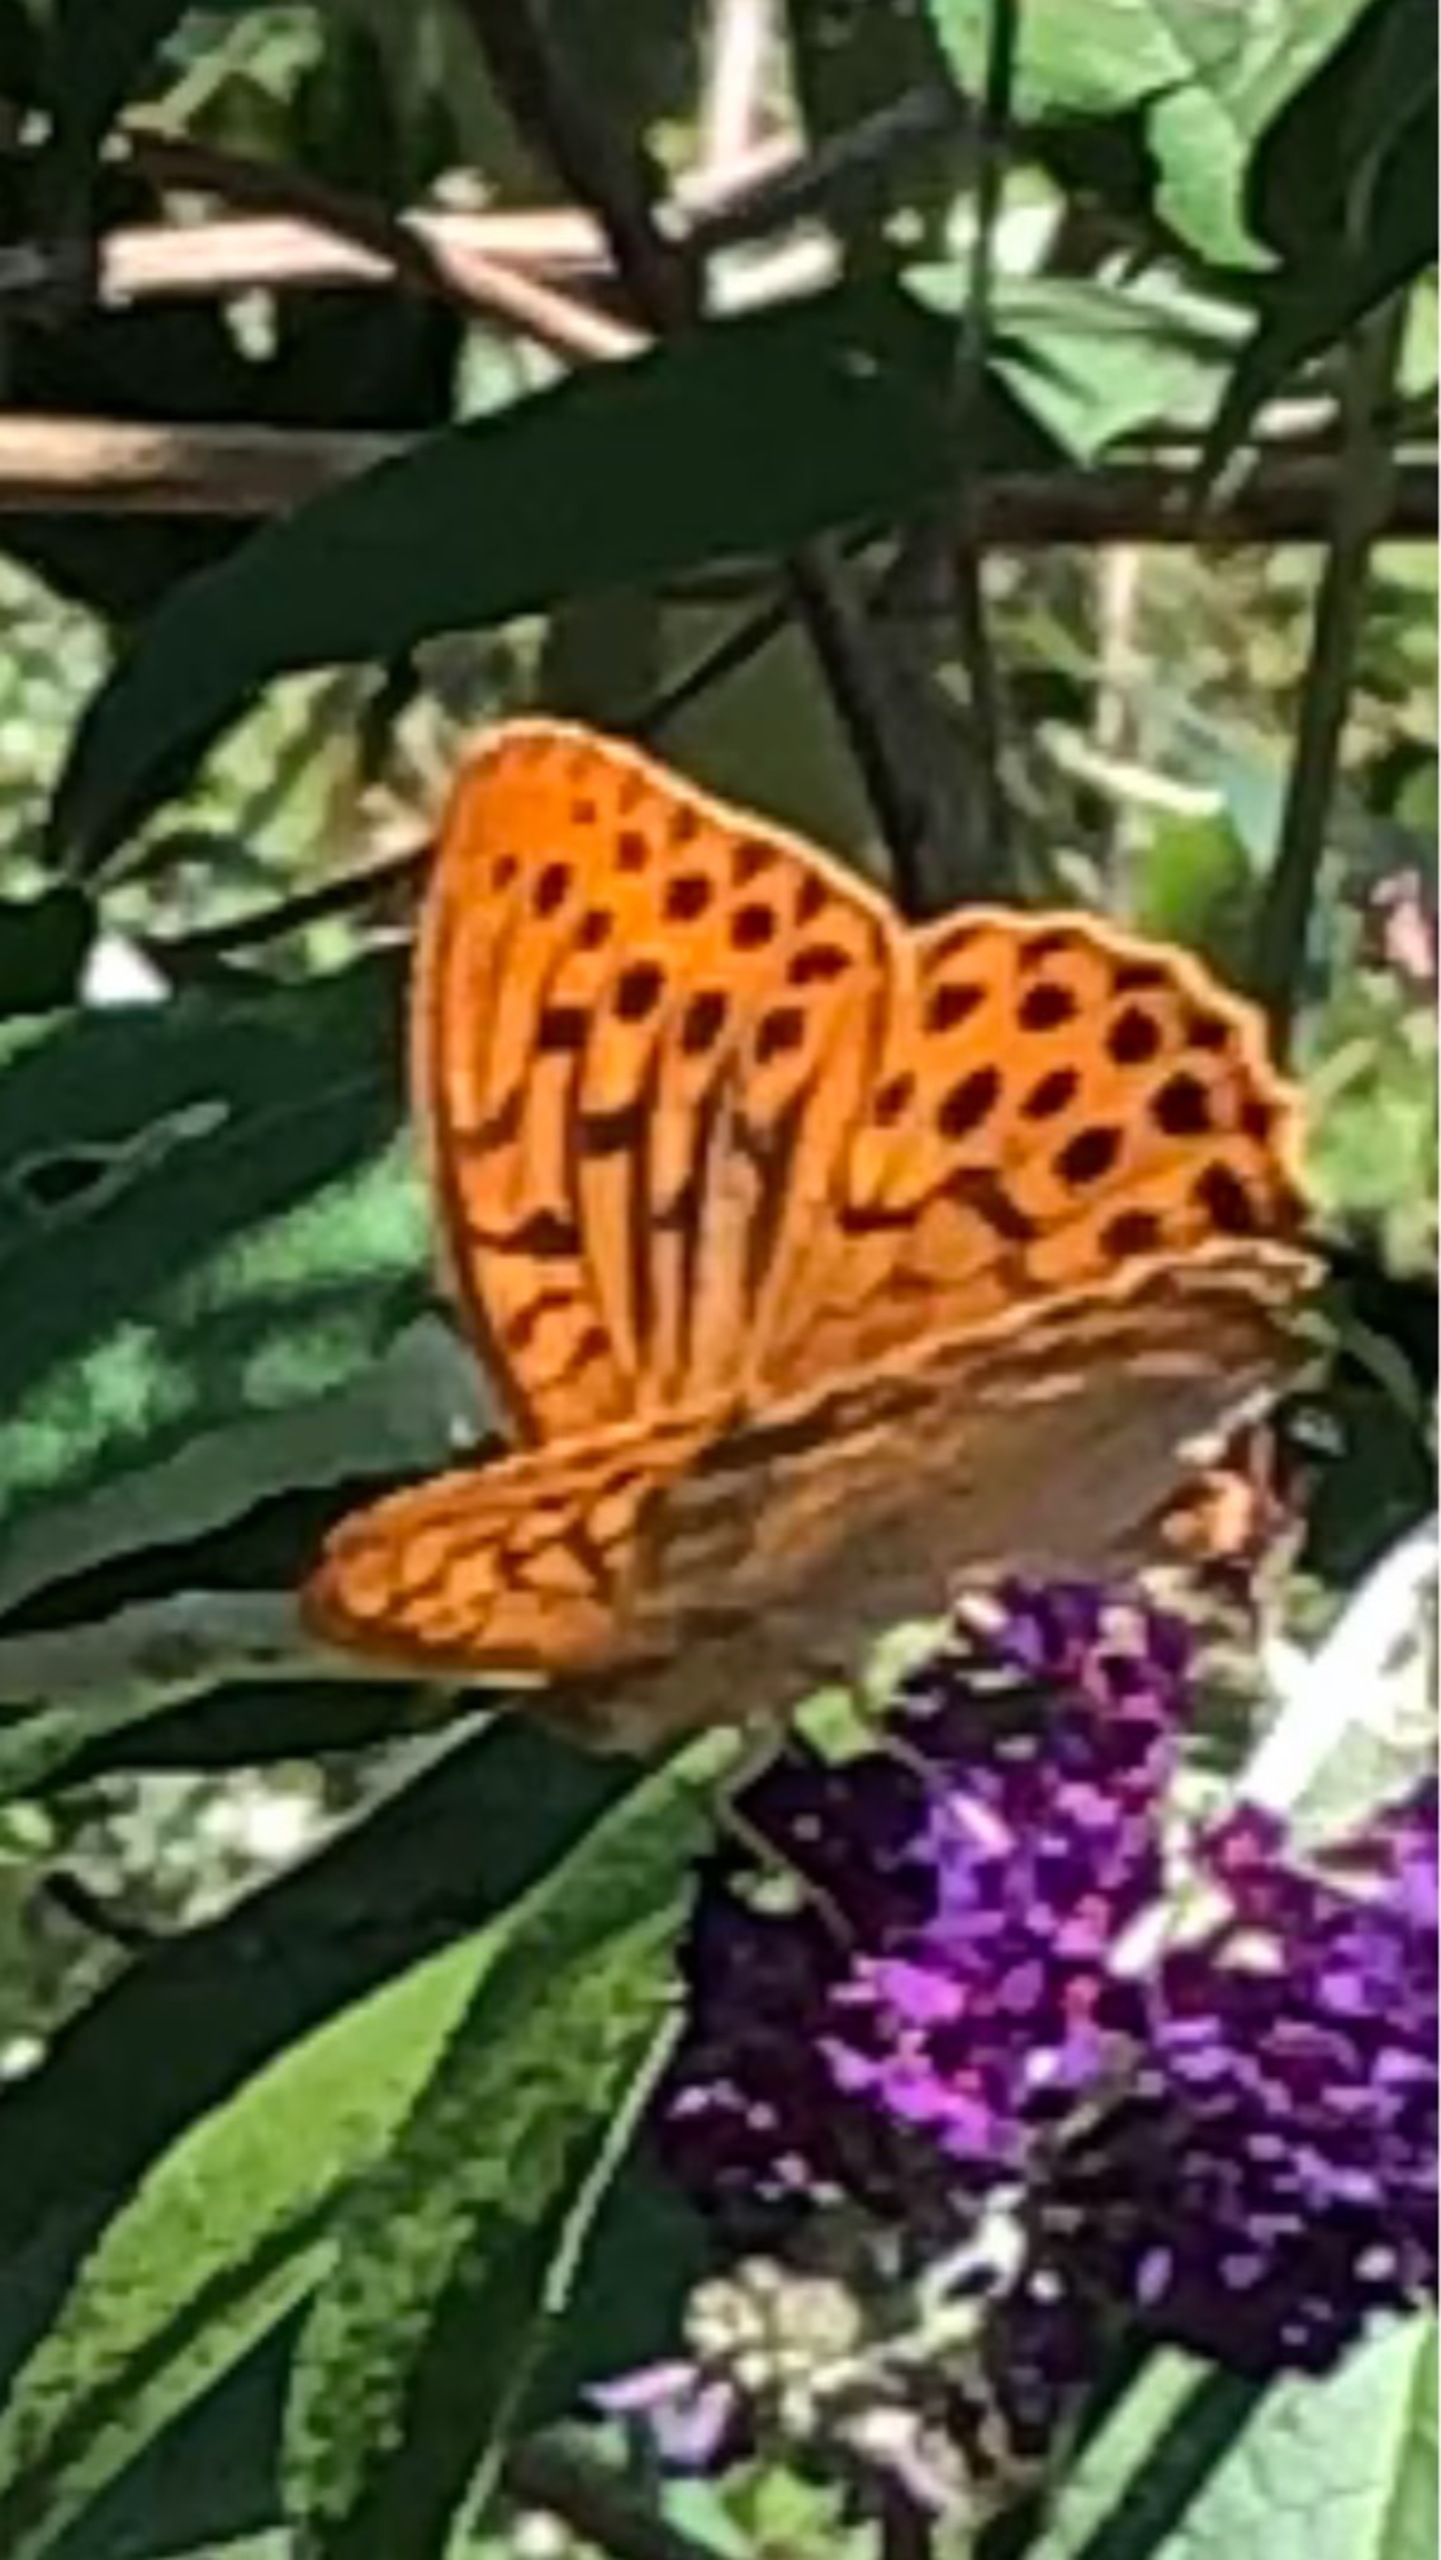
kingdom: Animalia
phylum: Arthropoda
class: Insecta
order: Lepidoptera
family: Nymphalidae
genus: Argynnis
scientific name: Argynnis paphia
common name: Kejserkåbe
